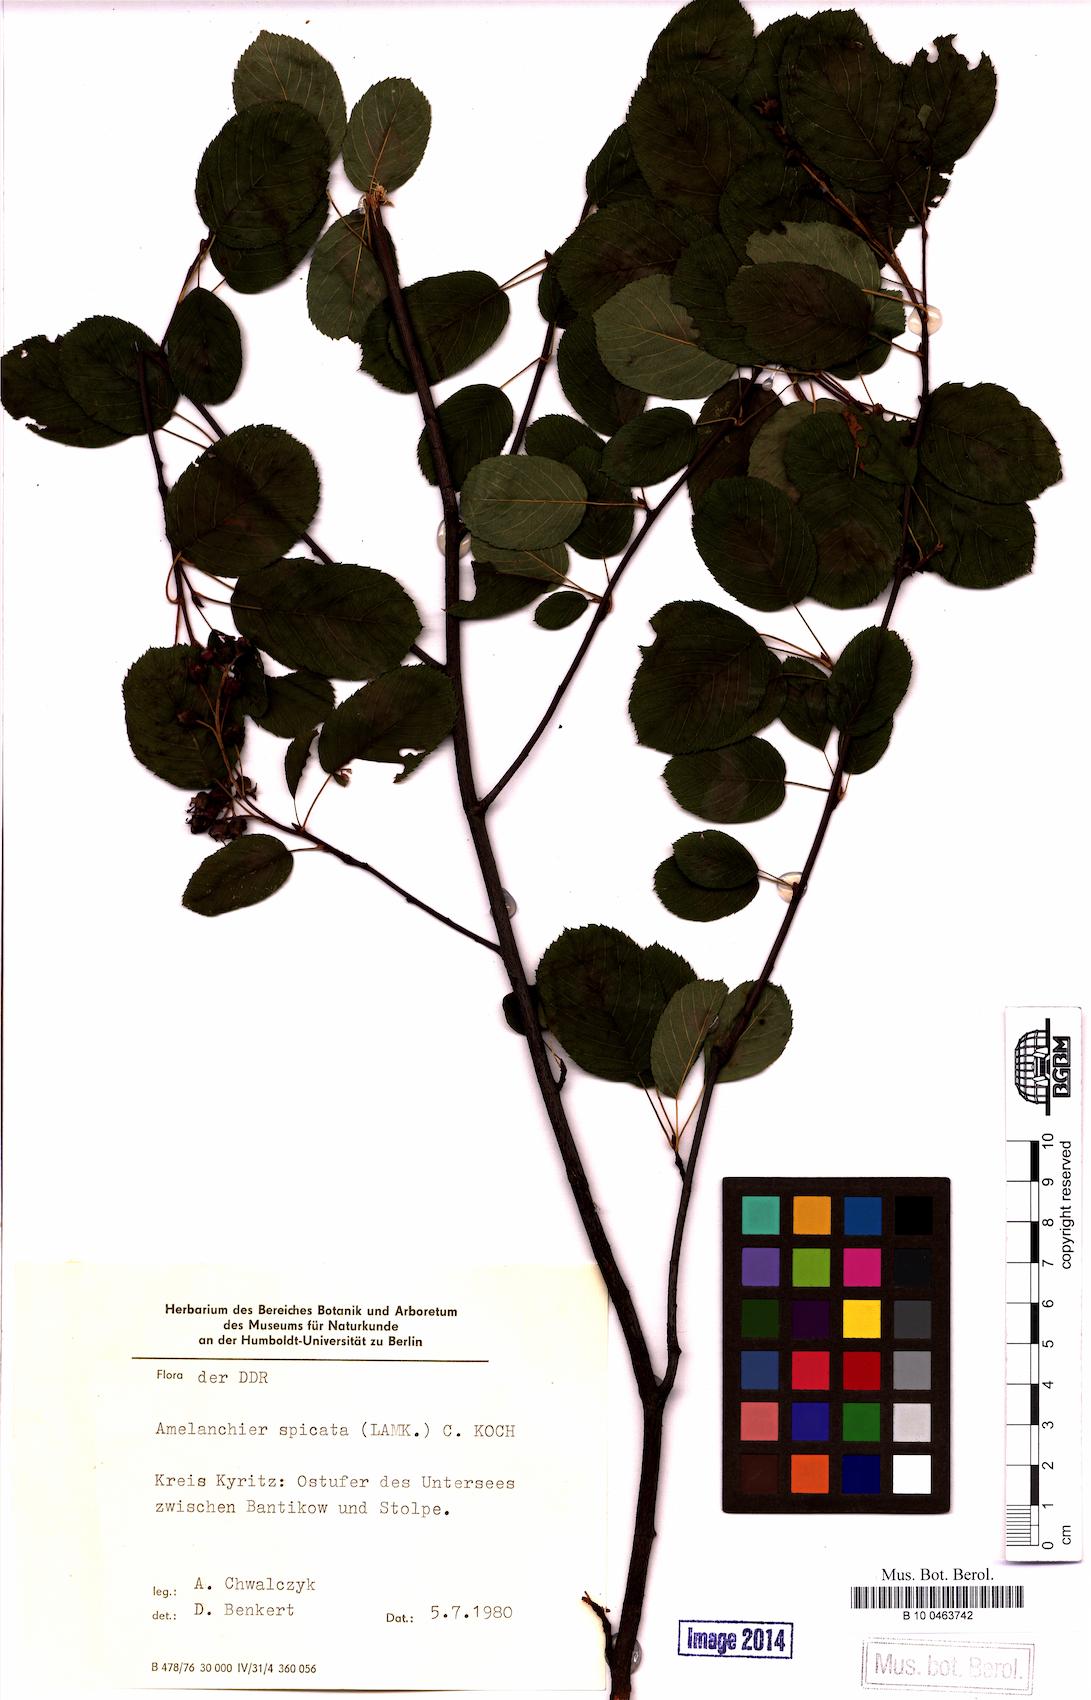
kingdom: Plantae
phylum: Tracheophyta
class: Magnoliopsida
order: Rosales
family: Rosaceae
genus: Amelanchier
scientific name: Amelanchier humilis
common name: Low juneberry
